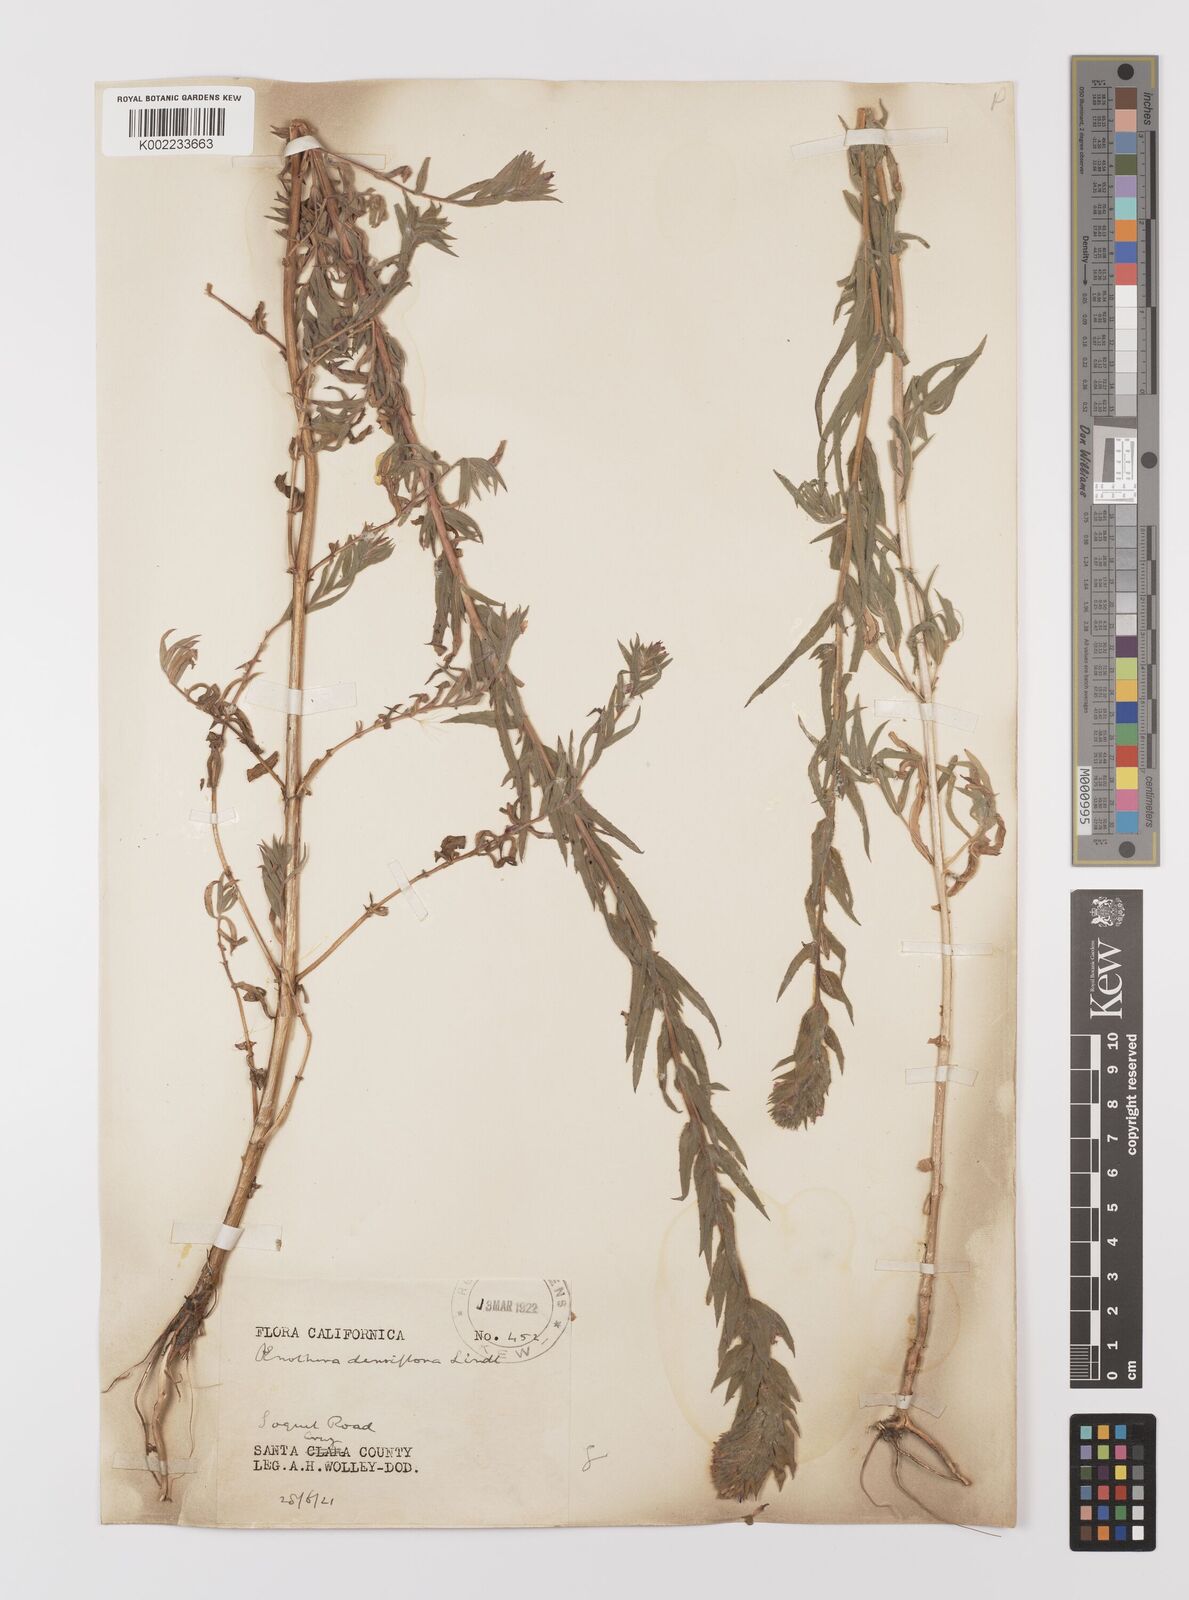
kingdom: Plantae
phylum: Tracheophyta
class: Magnoliopsida
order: Myrtales
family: Onagraceae
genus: Epilobium
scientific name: Epilobium densiflorum
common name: Dense spike-primrose
